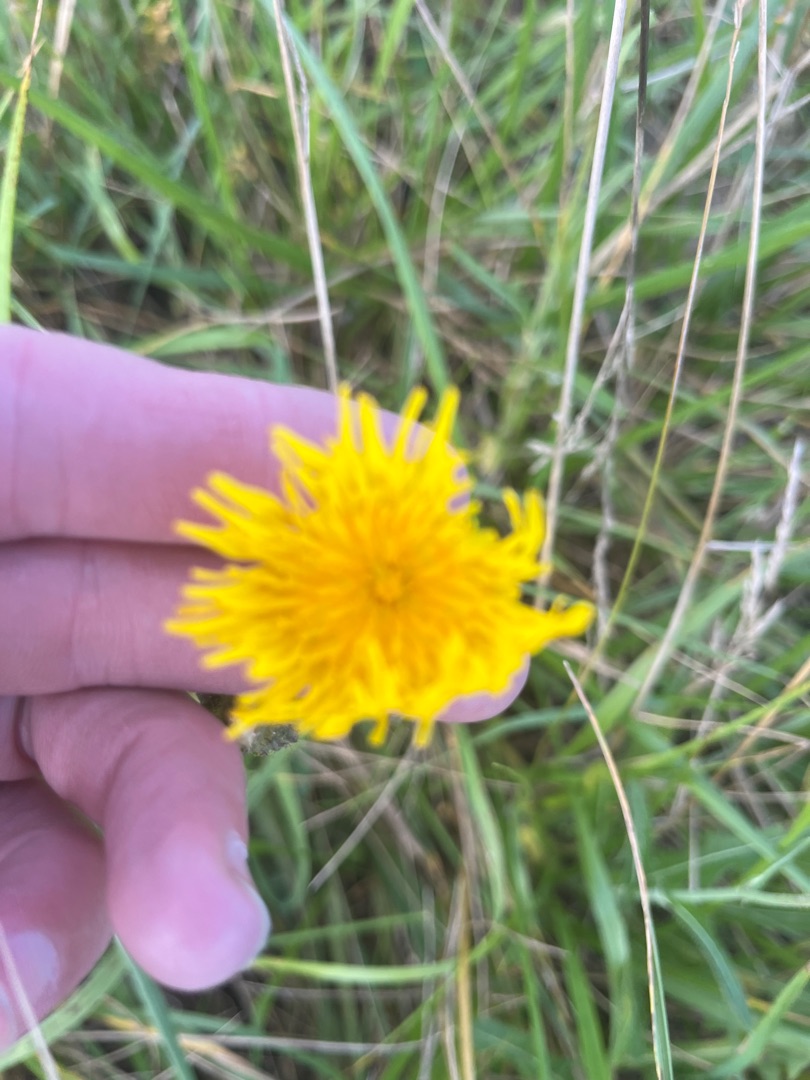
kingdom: Plantae
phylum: Tracheophyta
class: Magnoliopsida
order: Asterales
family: Asteraceae
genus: Sonchus
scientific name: Sonchus arvensis
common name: Ager-svinemælk
